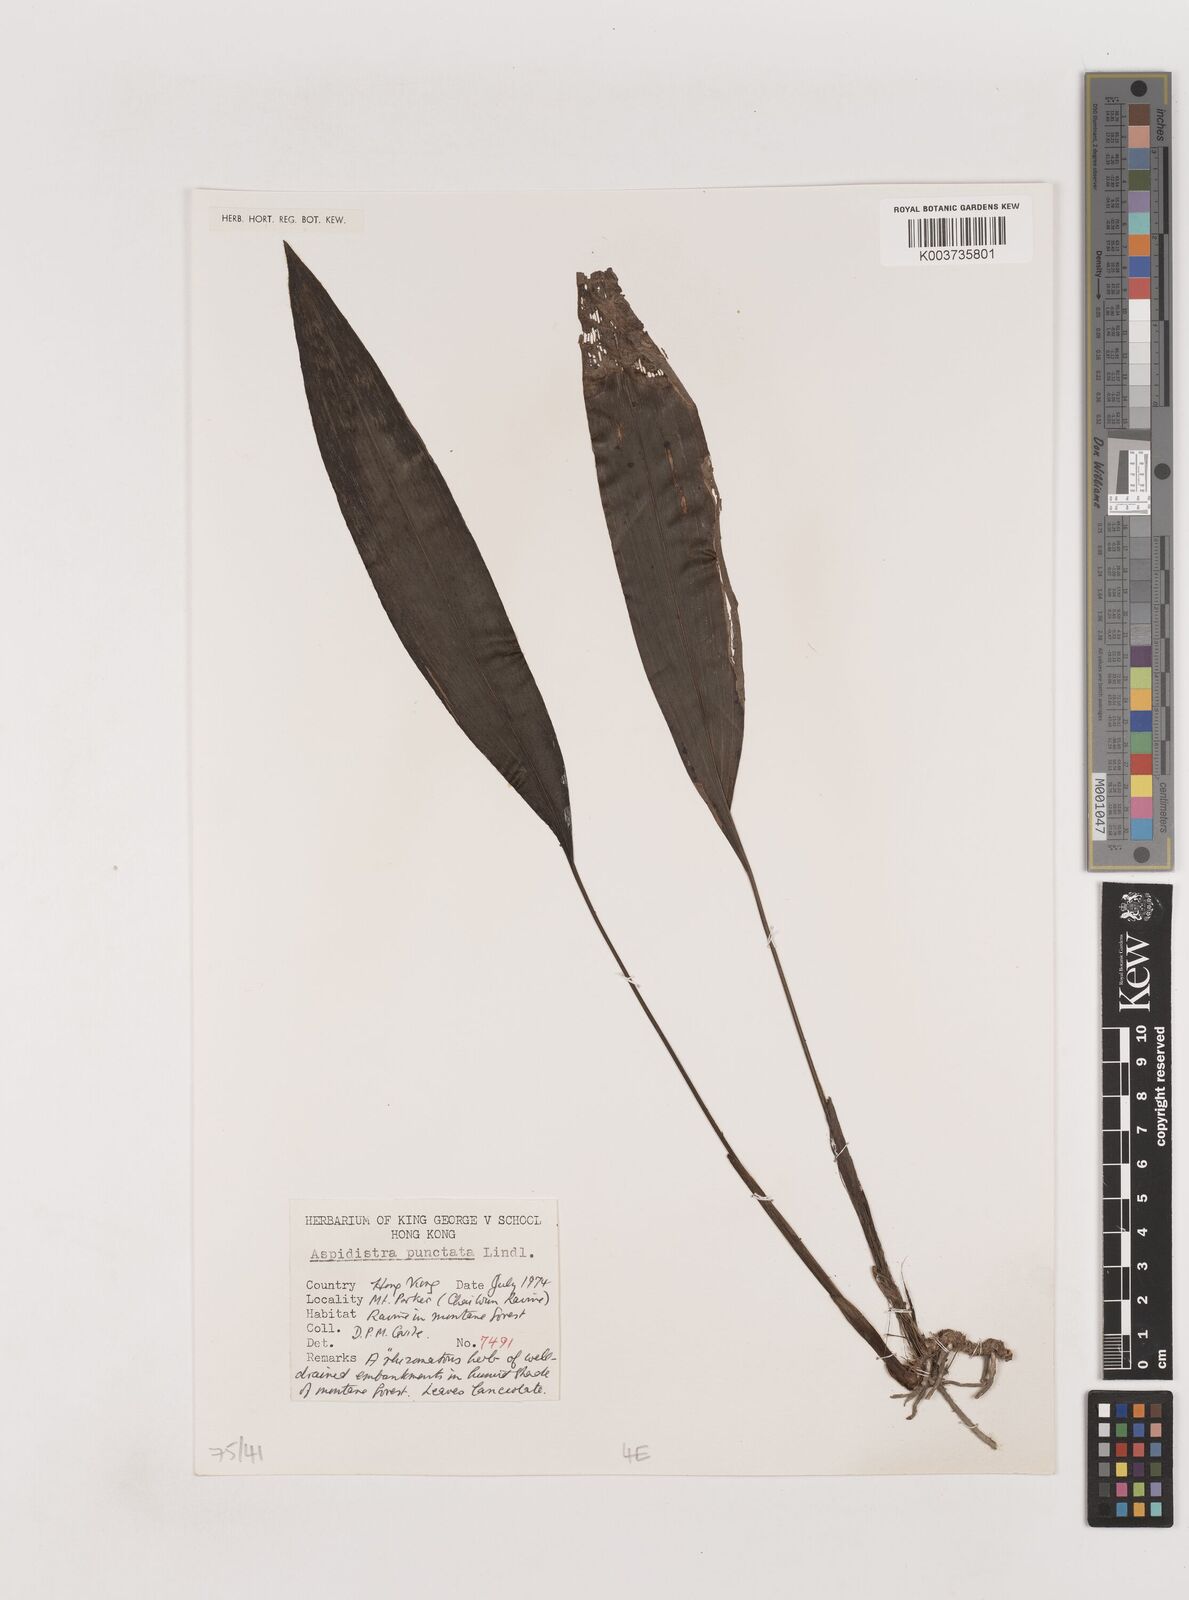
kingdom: Plantae
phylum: Tracheophyta
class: Liliopsida
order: Asparagales
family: Asparagaceae
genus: Aspidistra
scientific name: Aspidistra elatior
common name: Cast-iron-plant
